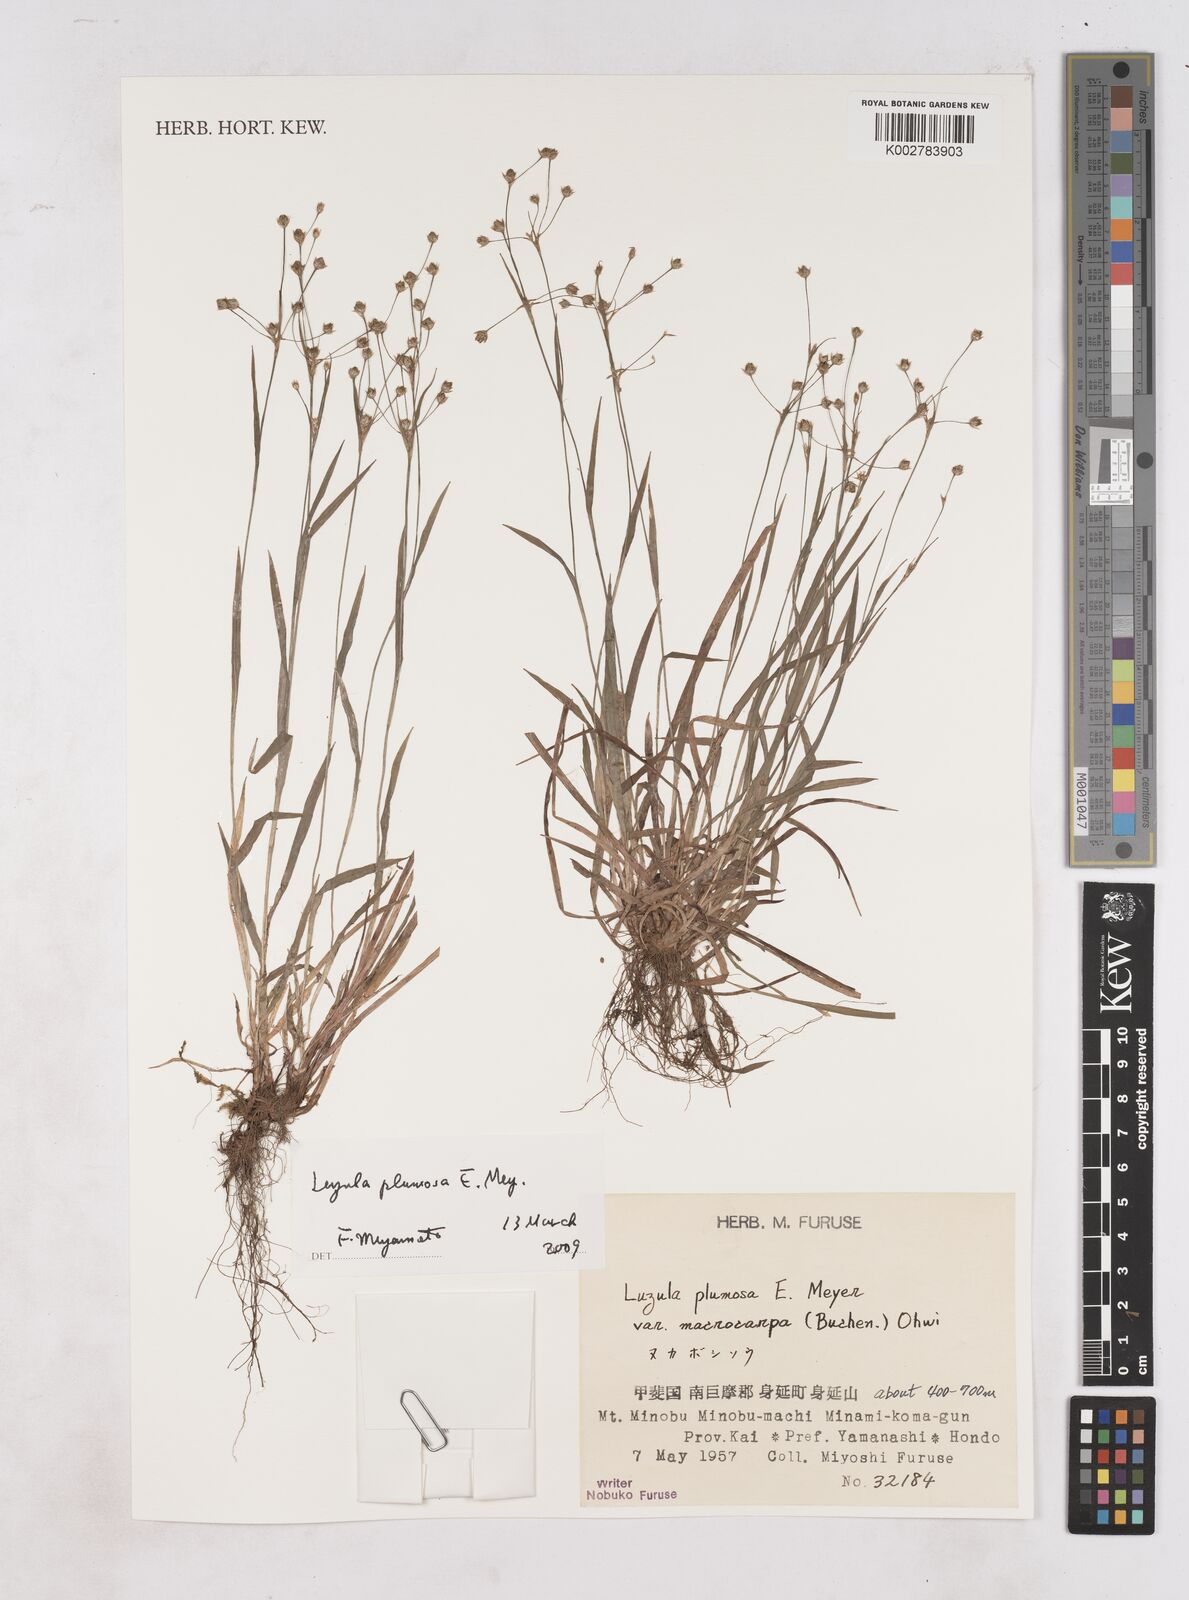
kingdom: Plantae
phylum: Tracheophyta
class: Liliopsida
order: Poales
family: Juncaceae
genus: Luzula
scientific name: Luzula plumosa
